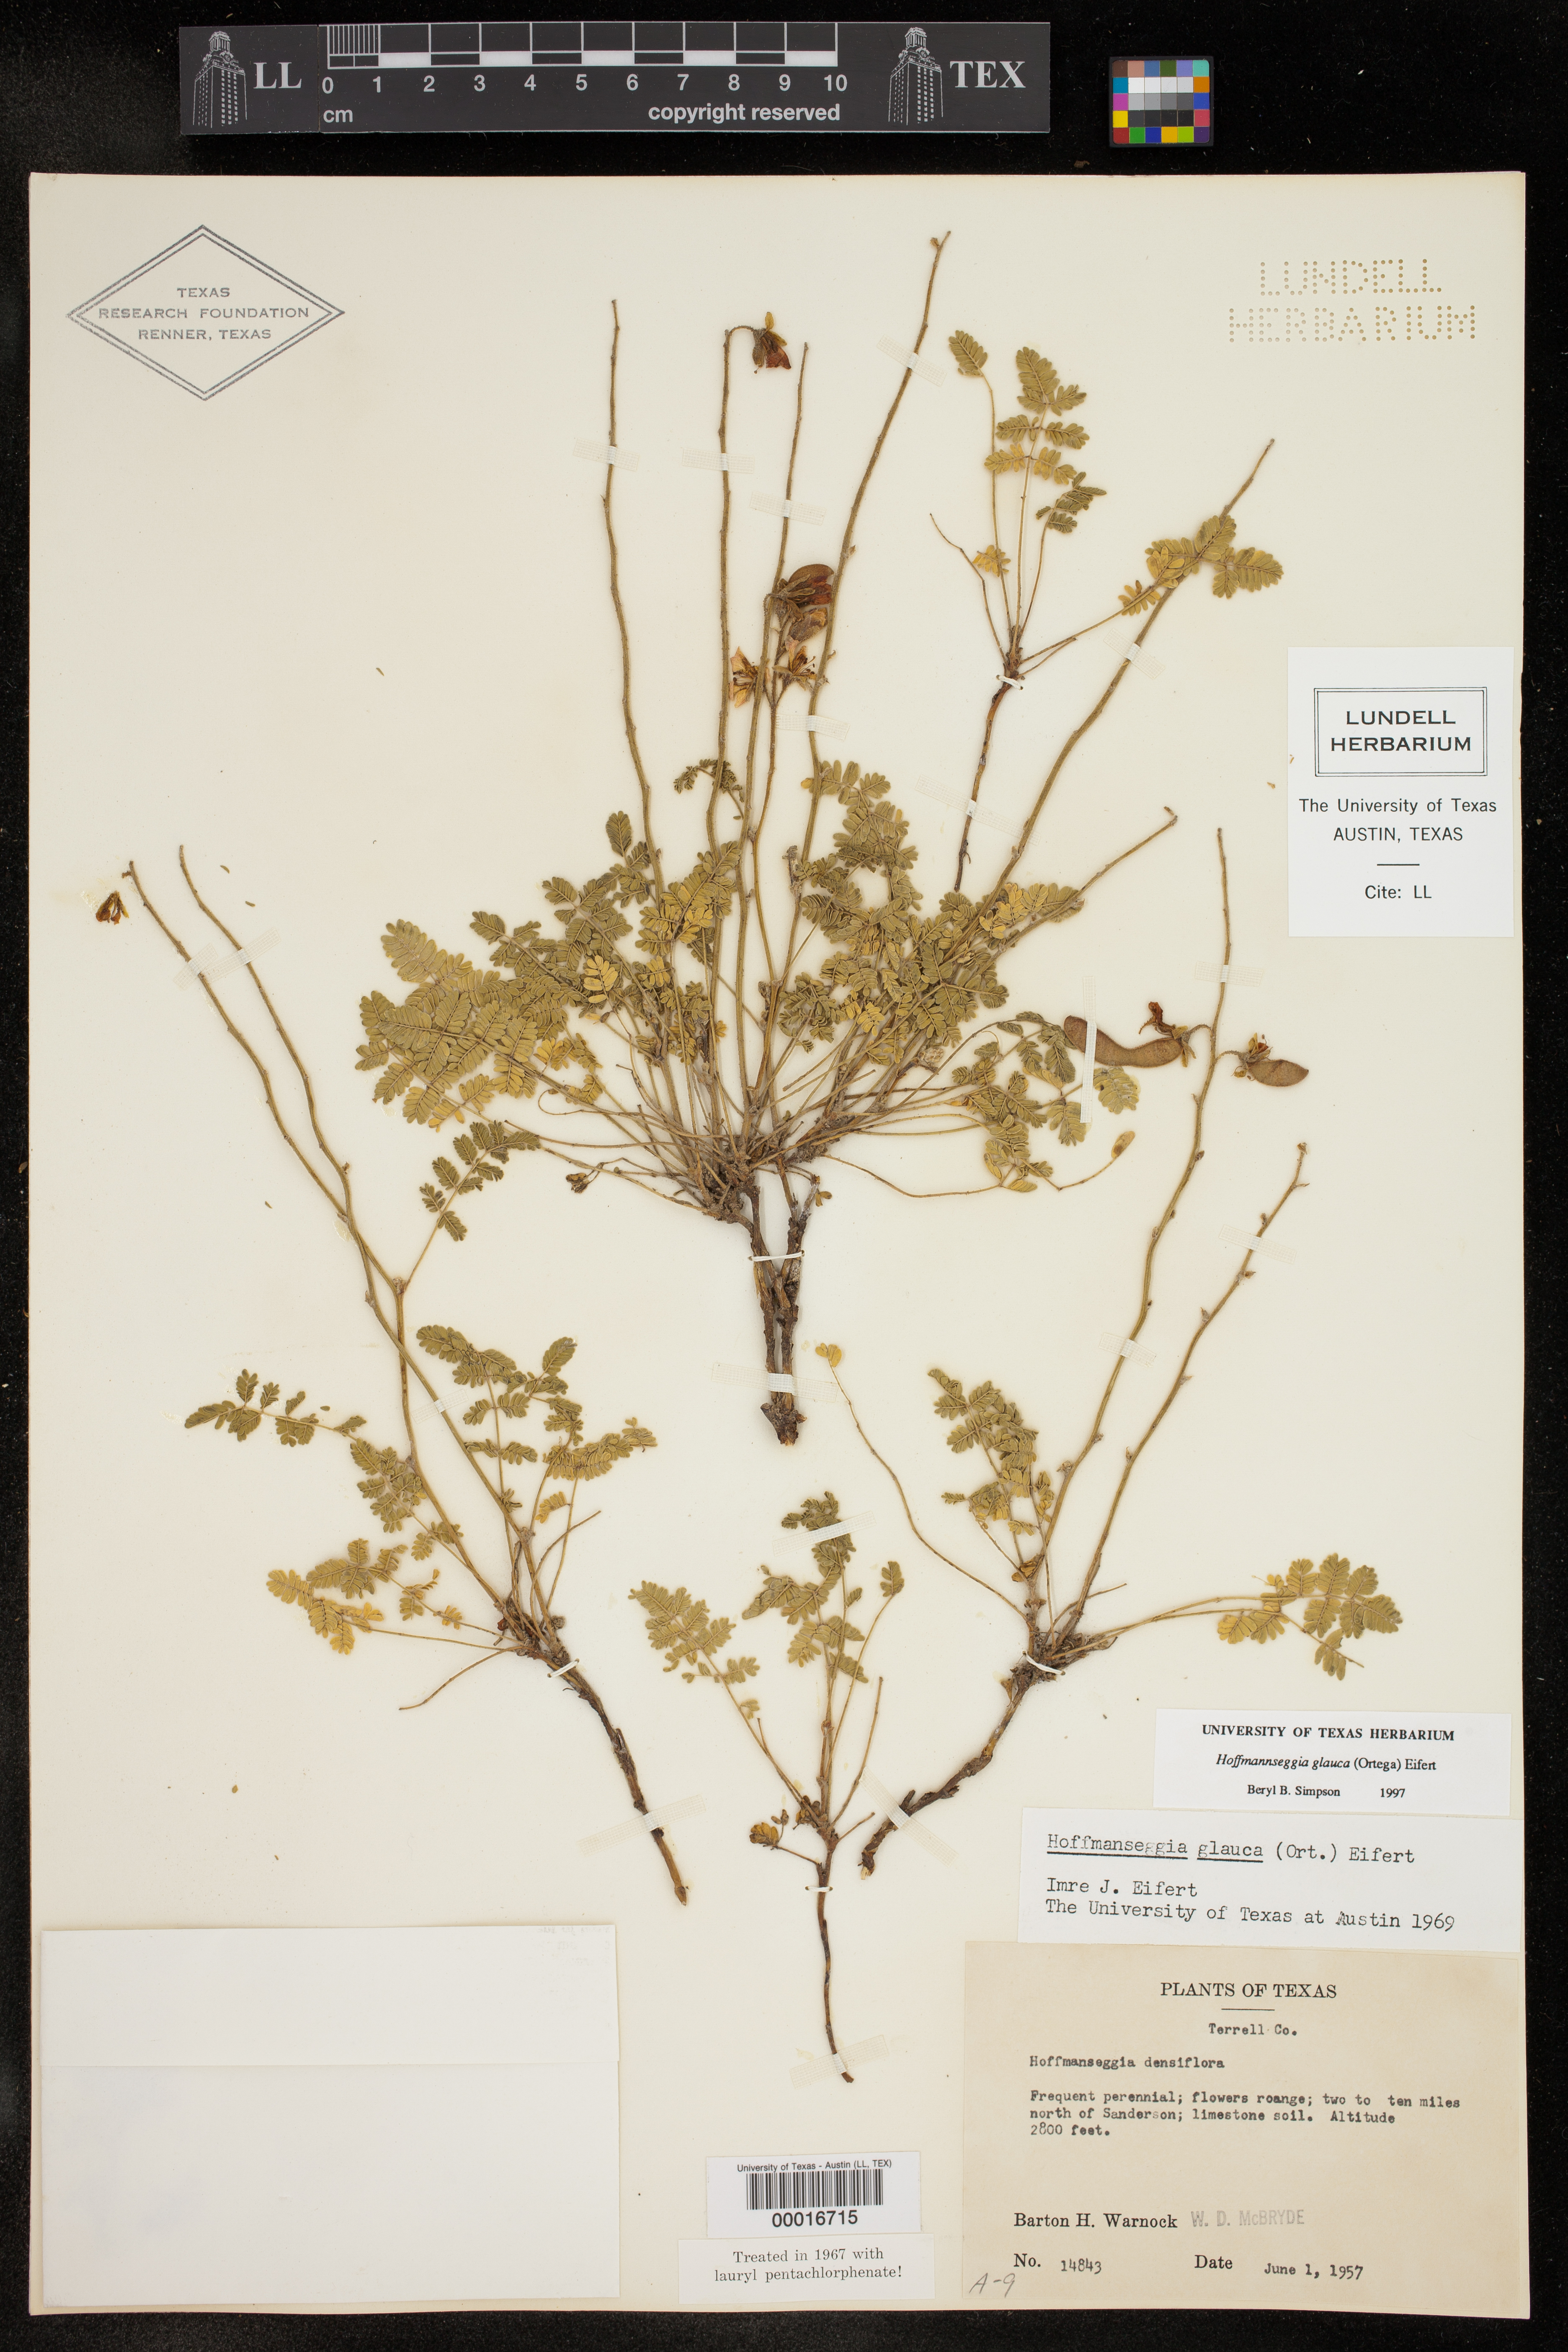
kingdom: Plantae
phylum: Tracheophyta
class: Magnoliopsida
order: Fabales
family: Fabaceae
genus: Hoffmannseggia
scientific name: Hoffmannseggia glauca
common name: Pignut
